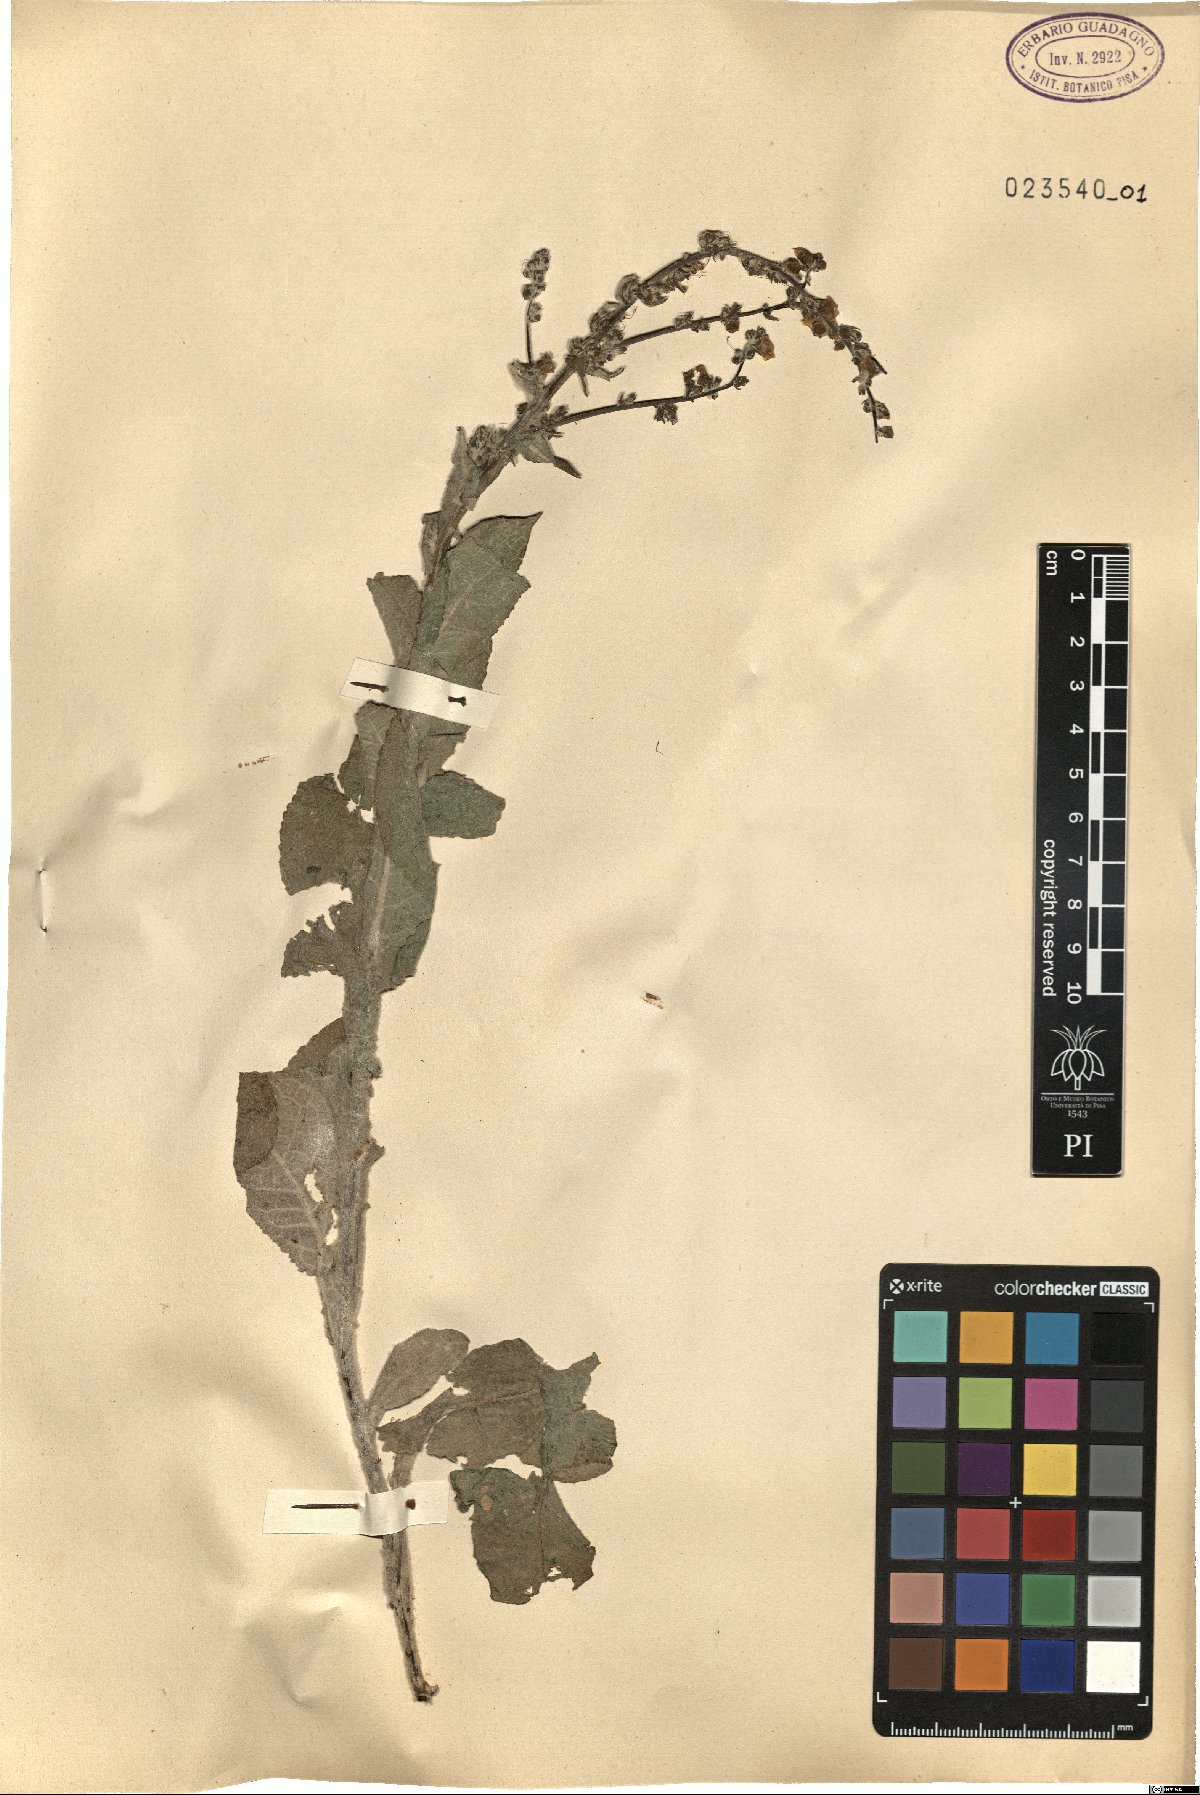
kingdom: Plantae
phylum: Tracheophyta
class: Magnoliopsida
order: Lamiales
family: Orobanchaceae
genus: Pedicularis
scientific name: Pedicularis brachyodonta
